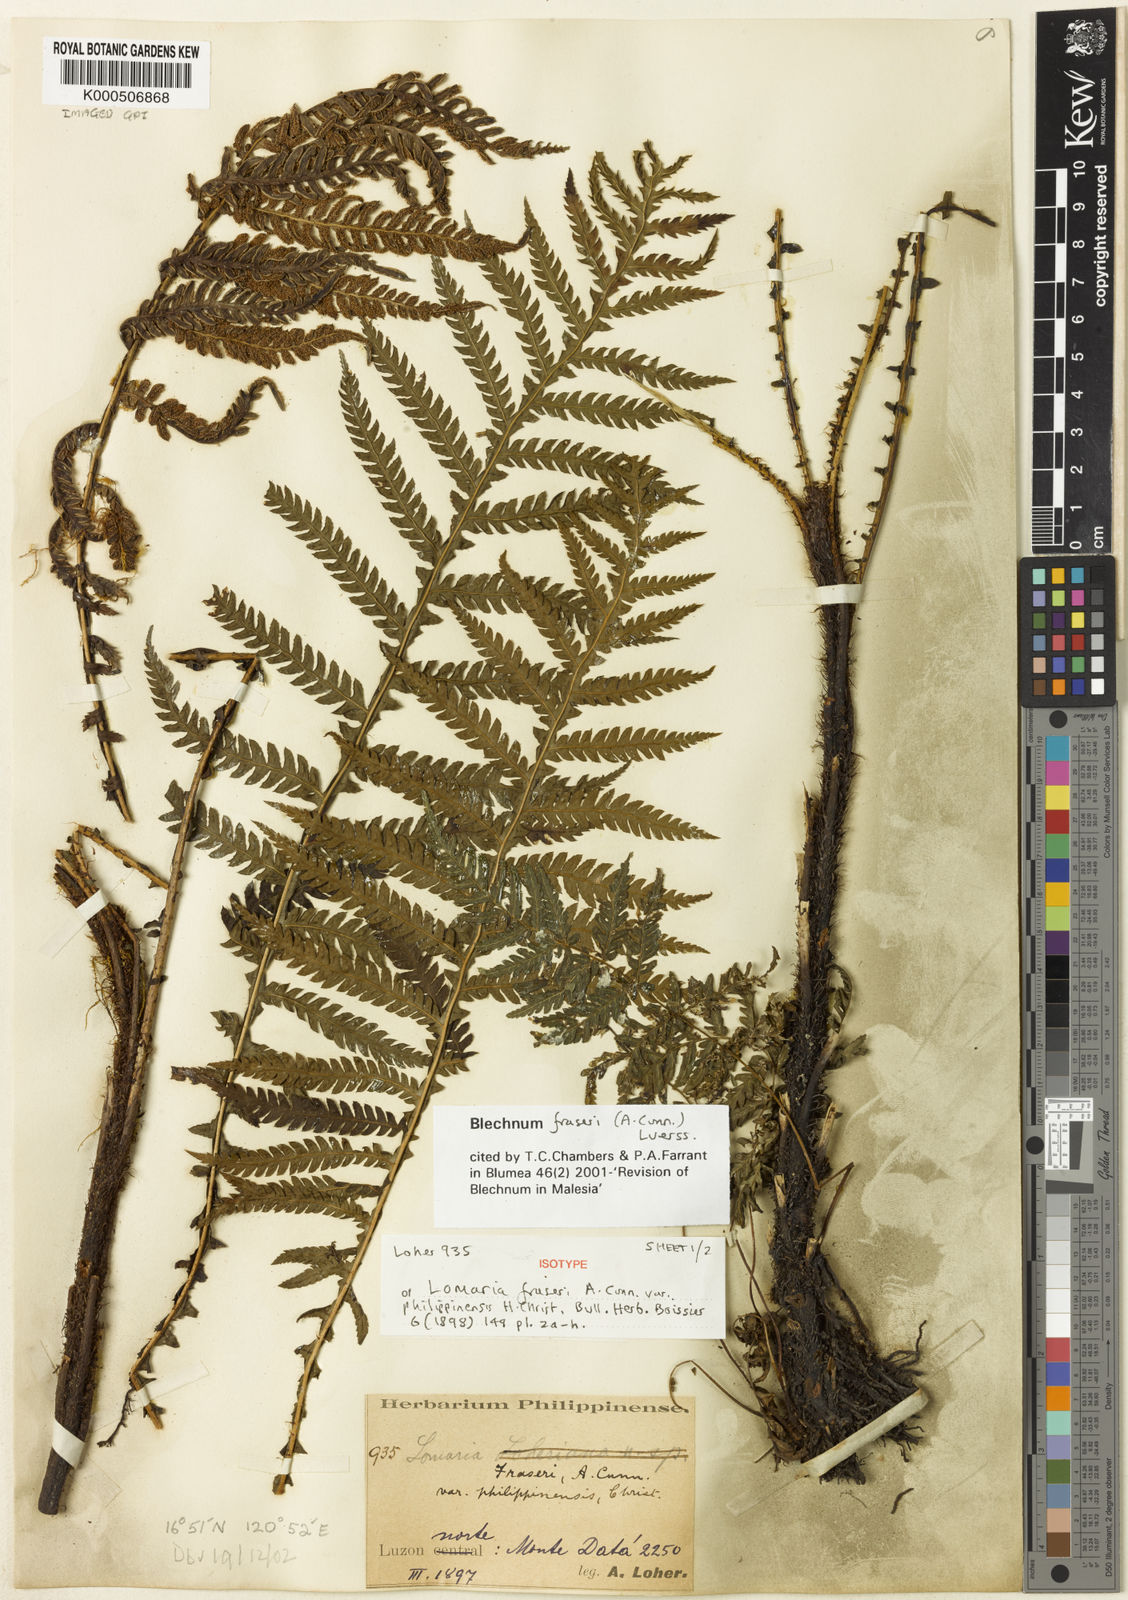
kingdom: Plantae
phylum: Tracheophyta
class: Polypodiopsida
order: Polypodiales
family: Blechnaceae
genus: Diploblechnum
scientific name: Diploblechnum fraseri
